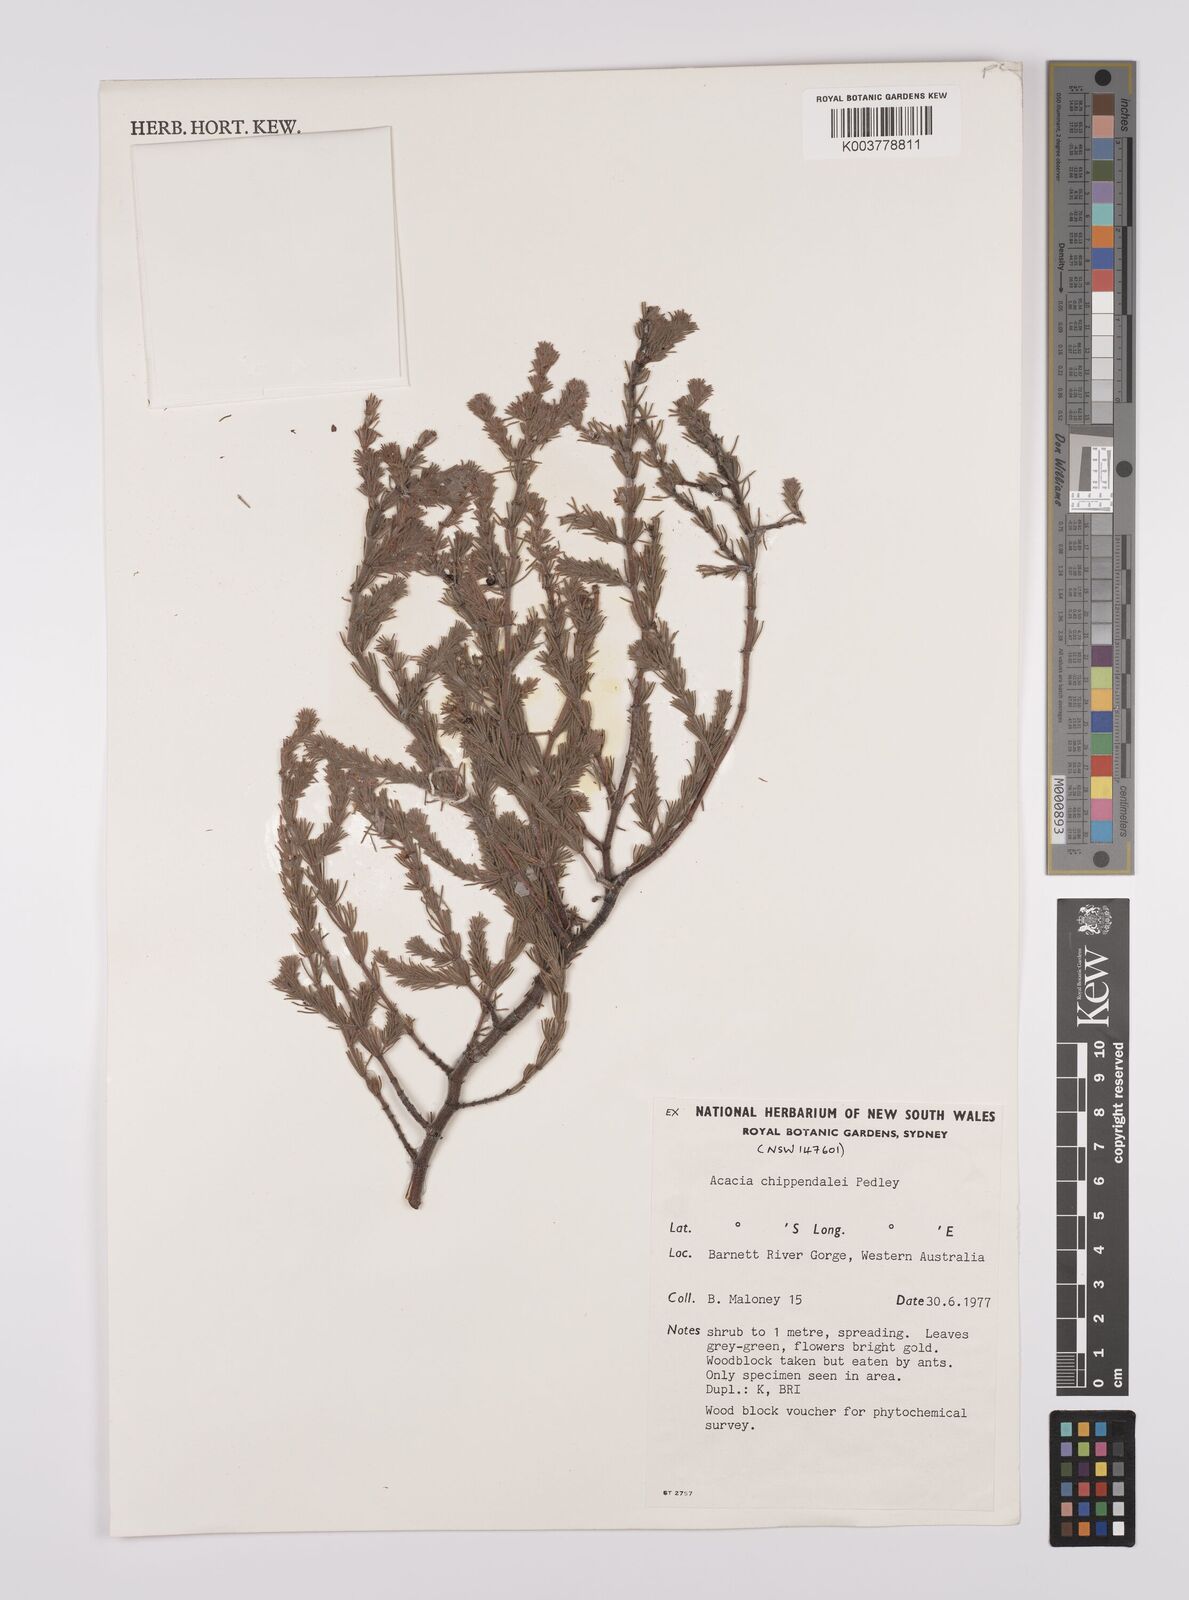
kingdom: Plantae
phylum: Tracheophyta
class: Magnoliopsida
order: Fabales
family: Fabaceae
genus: Acacia
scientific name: Acacia chippendalei
